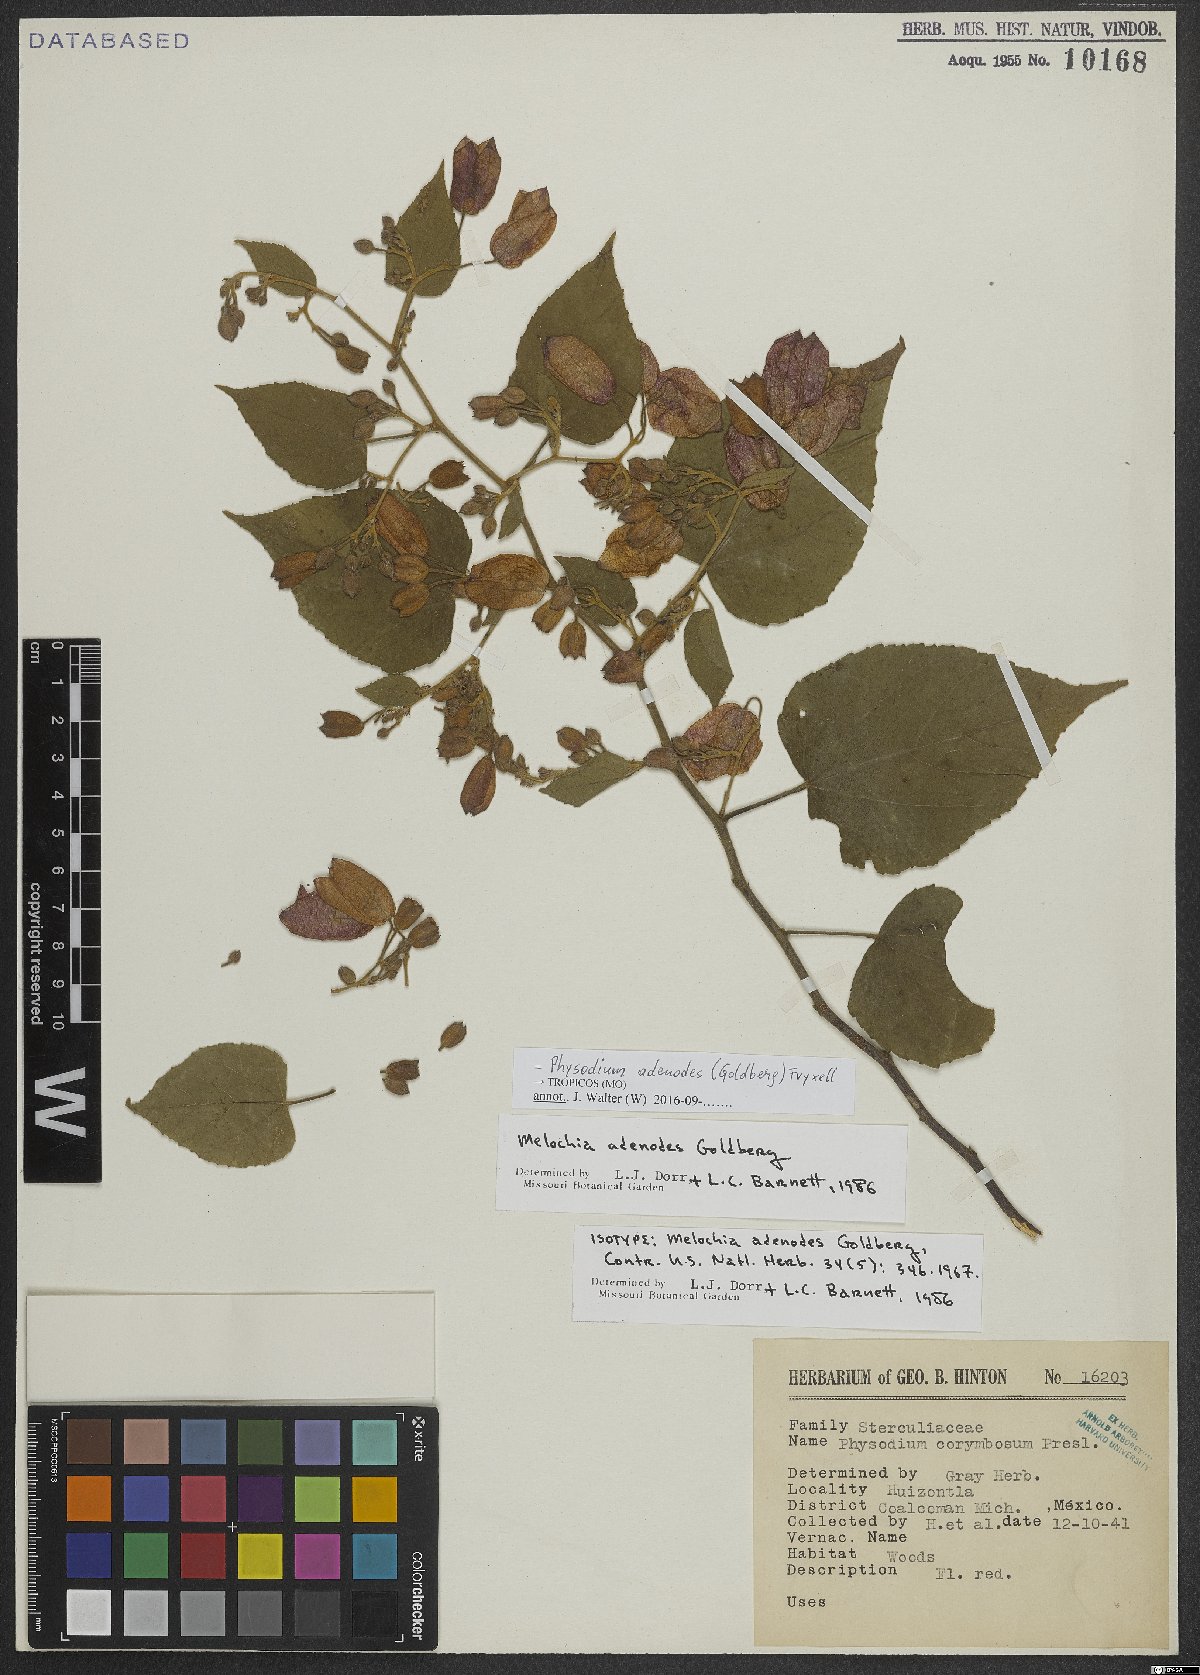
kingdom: Plantae
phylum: Tracheophyta
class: Magnoliopsida
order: Malvales
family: Malvaceae
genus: Physodium
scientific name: Physodium adenodes
